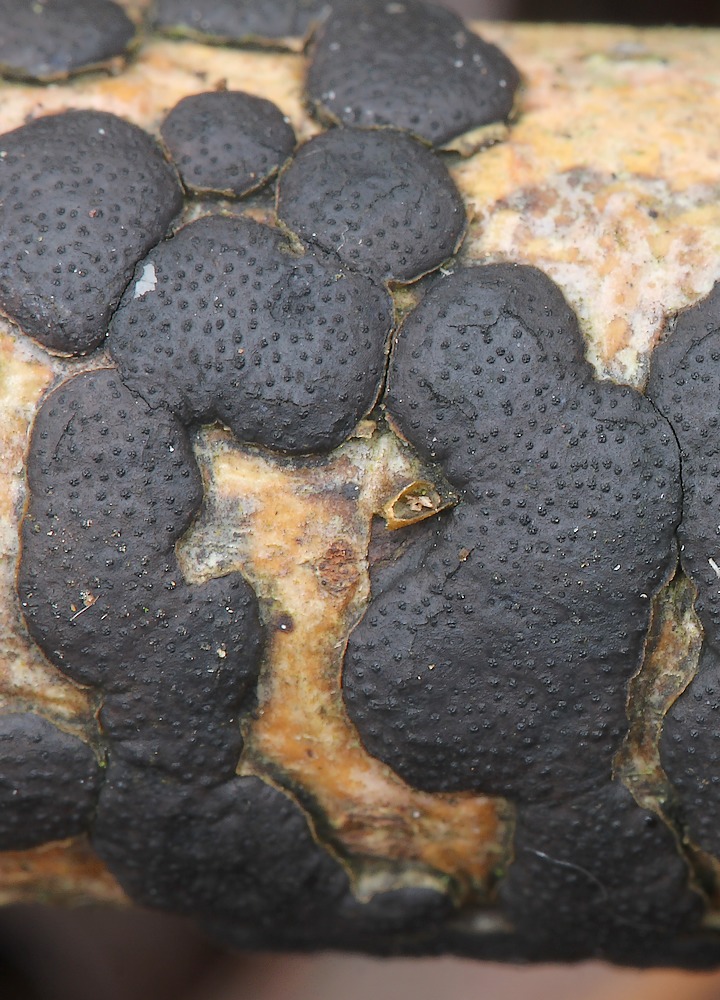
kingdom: Fungi
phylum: Ascomycota
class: Sordariomycetes
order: Xylariales
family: Diatrypaceae
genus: Diatrype
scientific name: Diatrype bullata
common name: pile-kulskorpe
